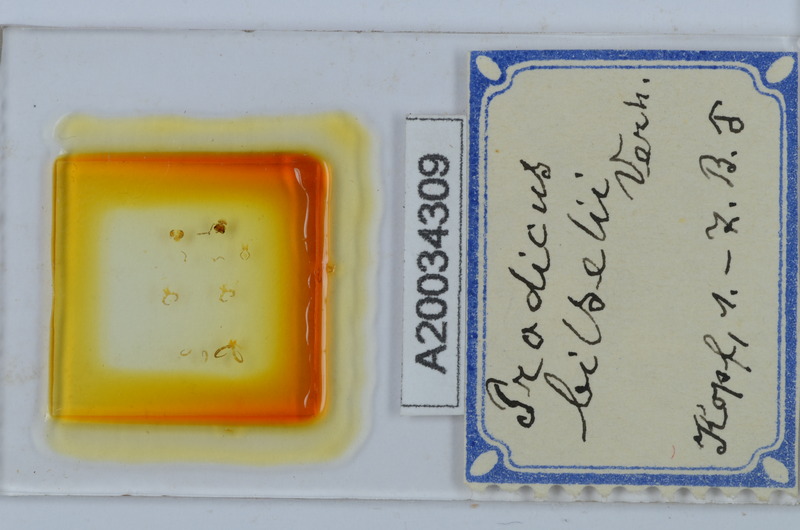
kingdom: Animalia
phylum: Arthropoda
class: Diplopoda
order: Chordeumatida
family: Anthroleucosomatidae
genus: Anamastigona
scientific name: Anamastigona bilselii
